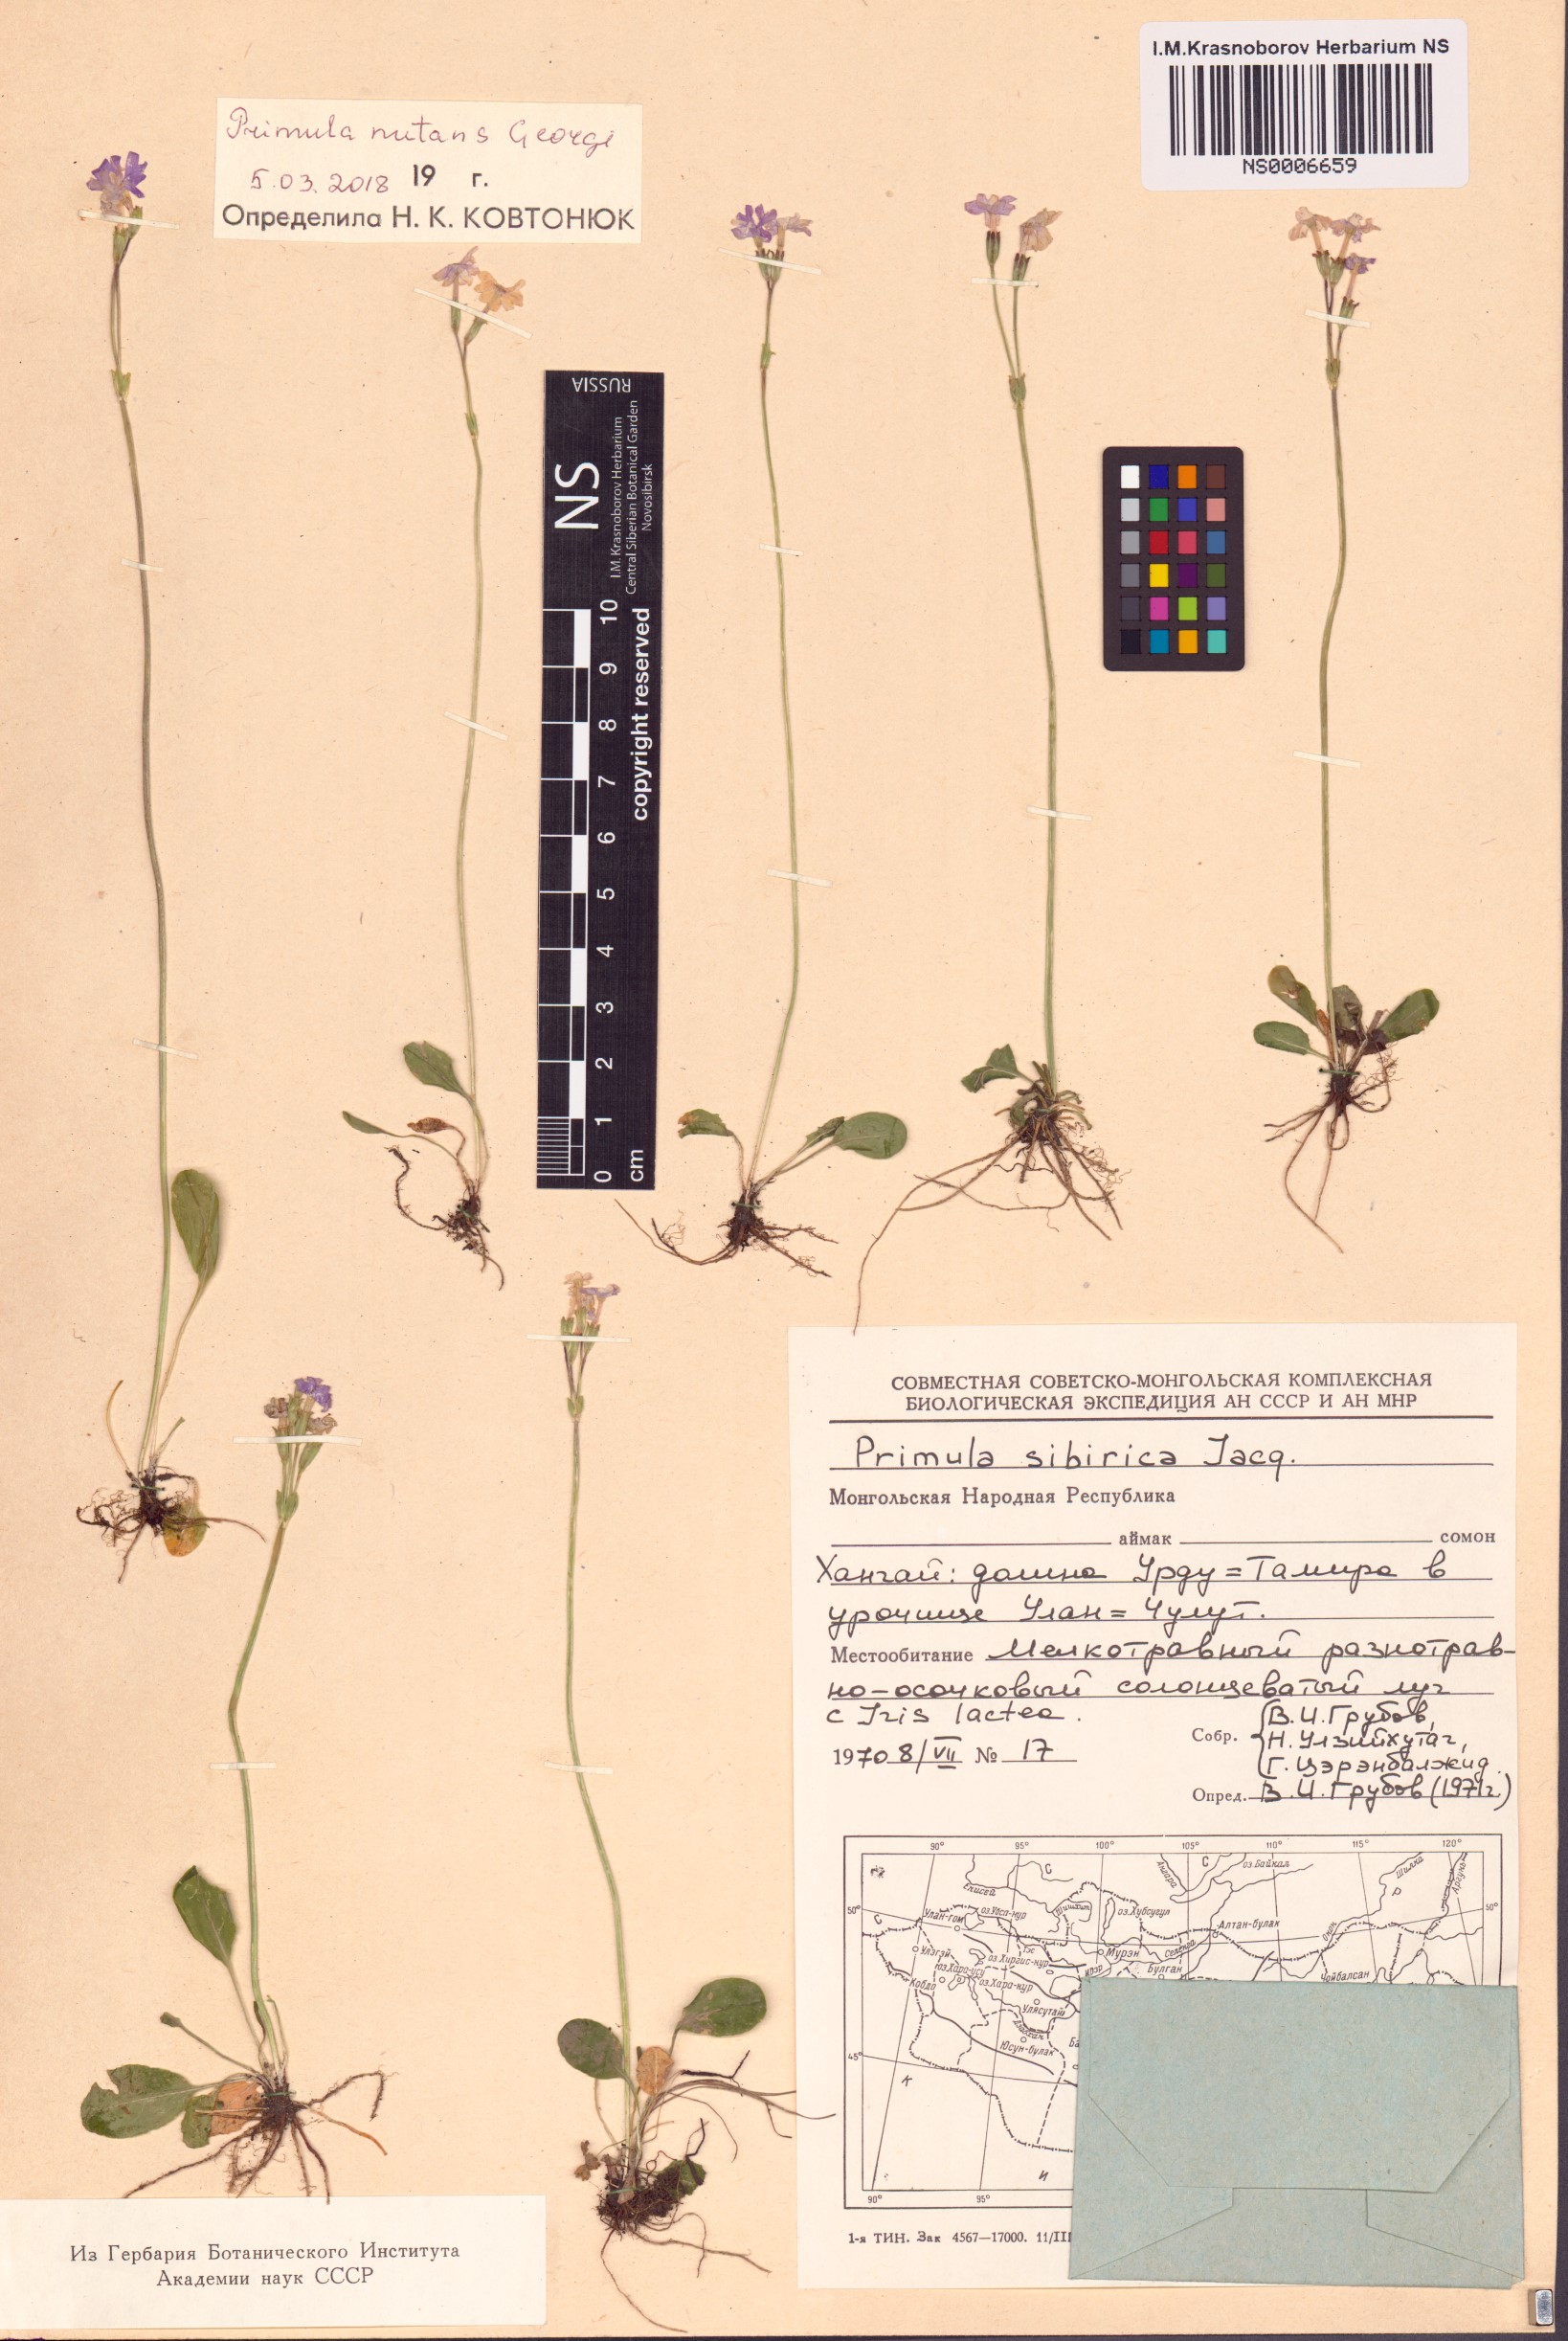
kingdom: Plantae
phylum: Tracheophyta
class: Magnoliopsida
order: Ericales
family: Primulaceae
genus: Primula
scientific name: Primula nutans
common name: Siberian primrose
